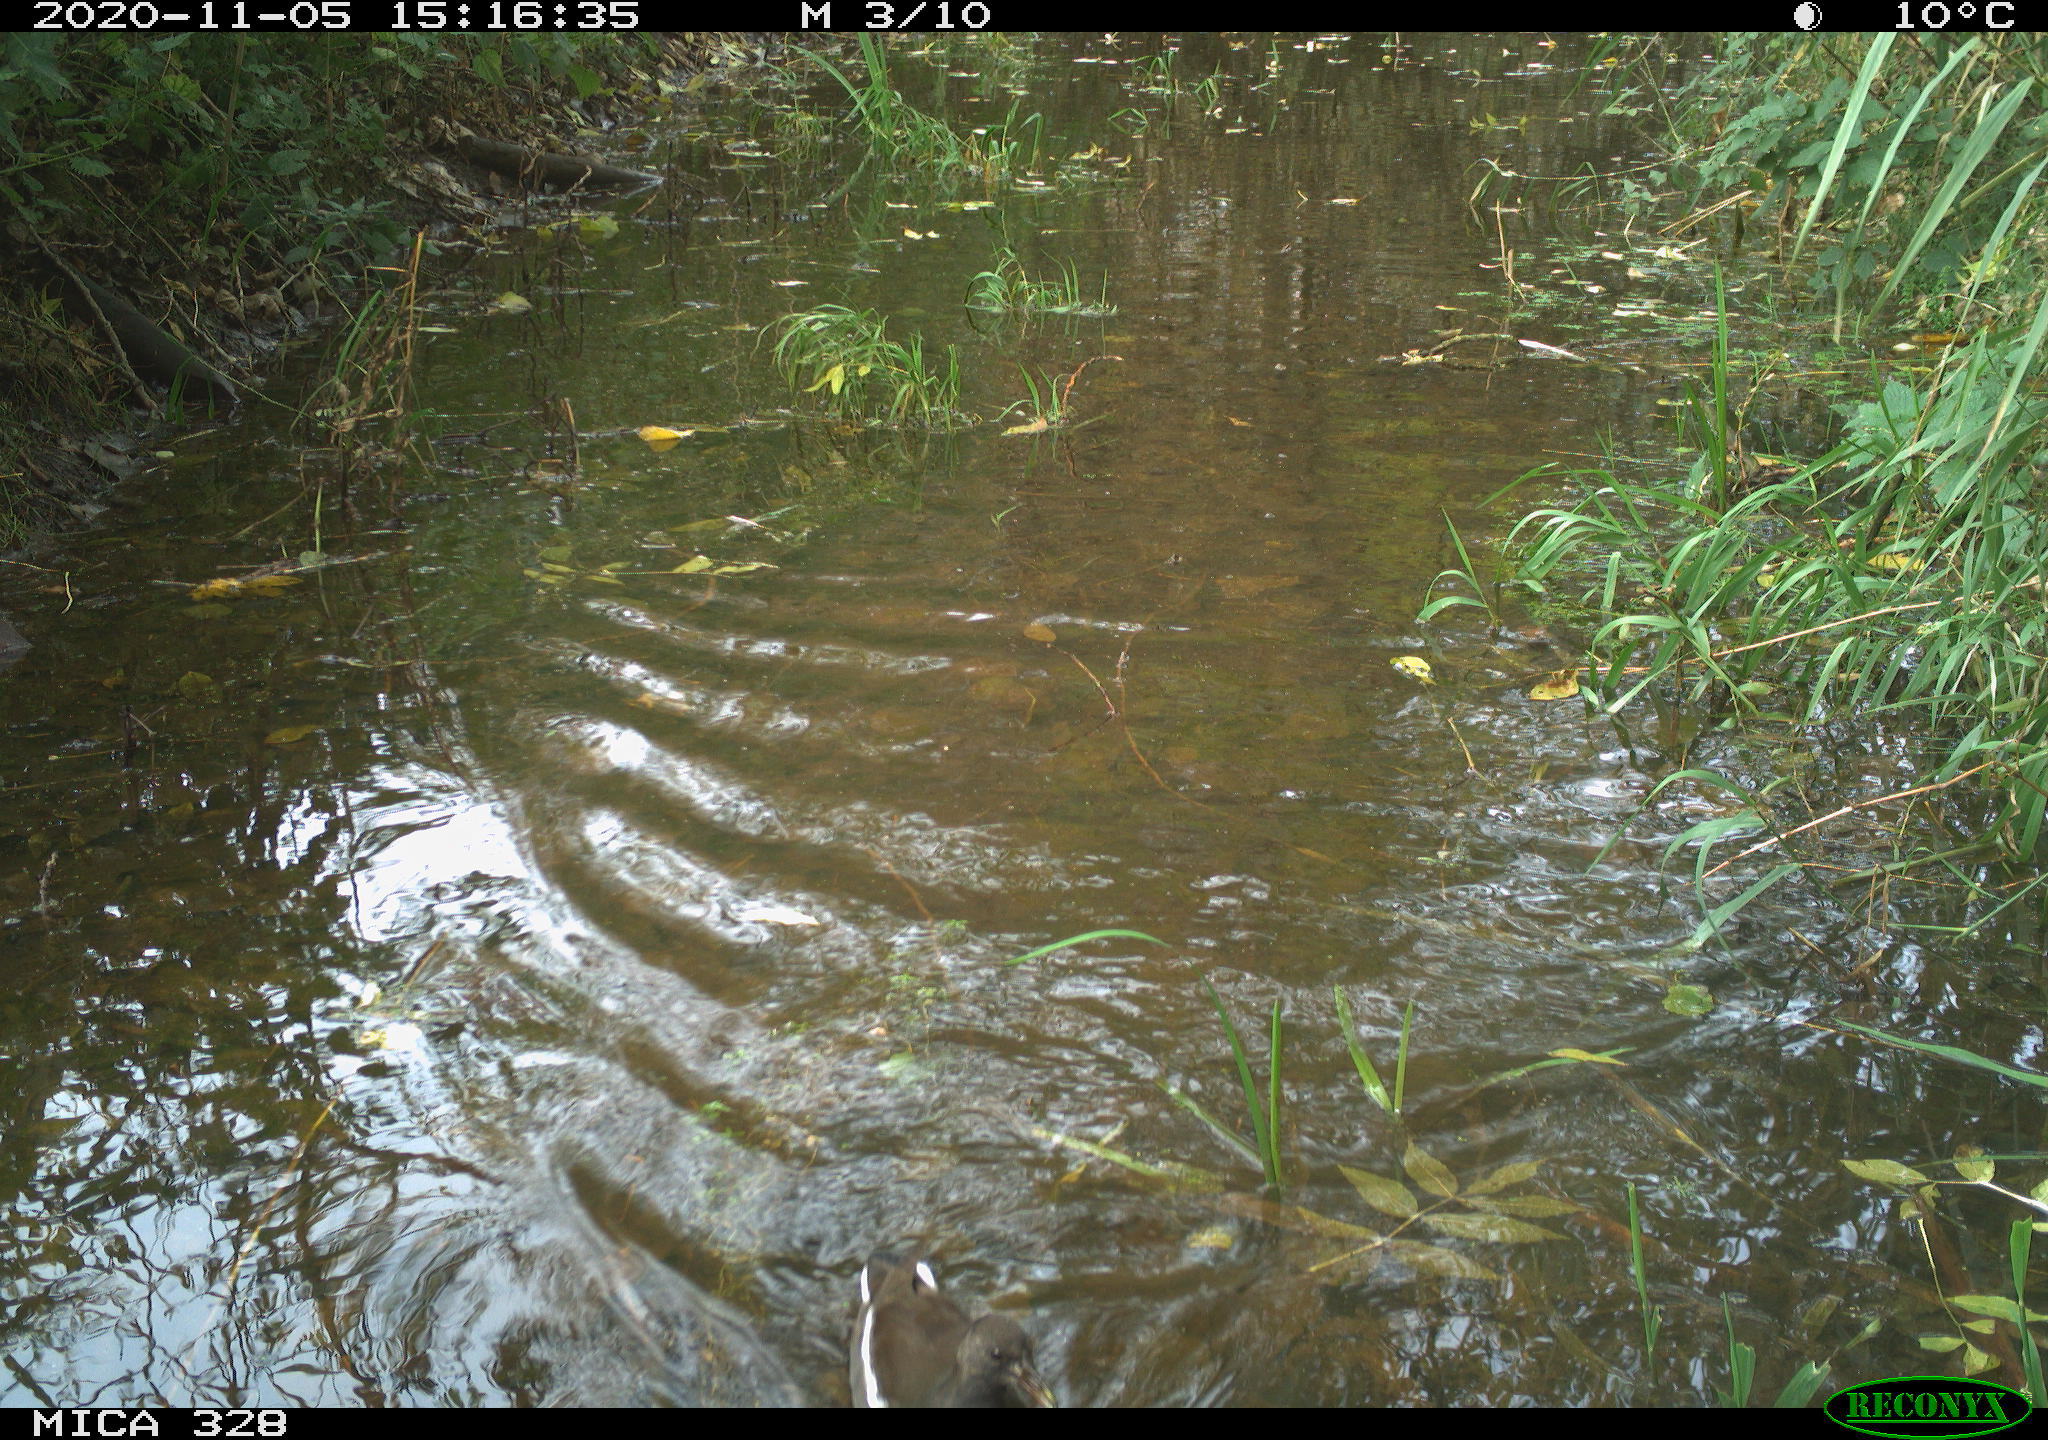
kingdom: Animalia
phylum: Chordata
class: Aves
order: Gruiformes
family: Rallidae
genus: Gallinula
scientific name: Gallinula chloropus
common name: Common moorhen
